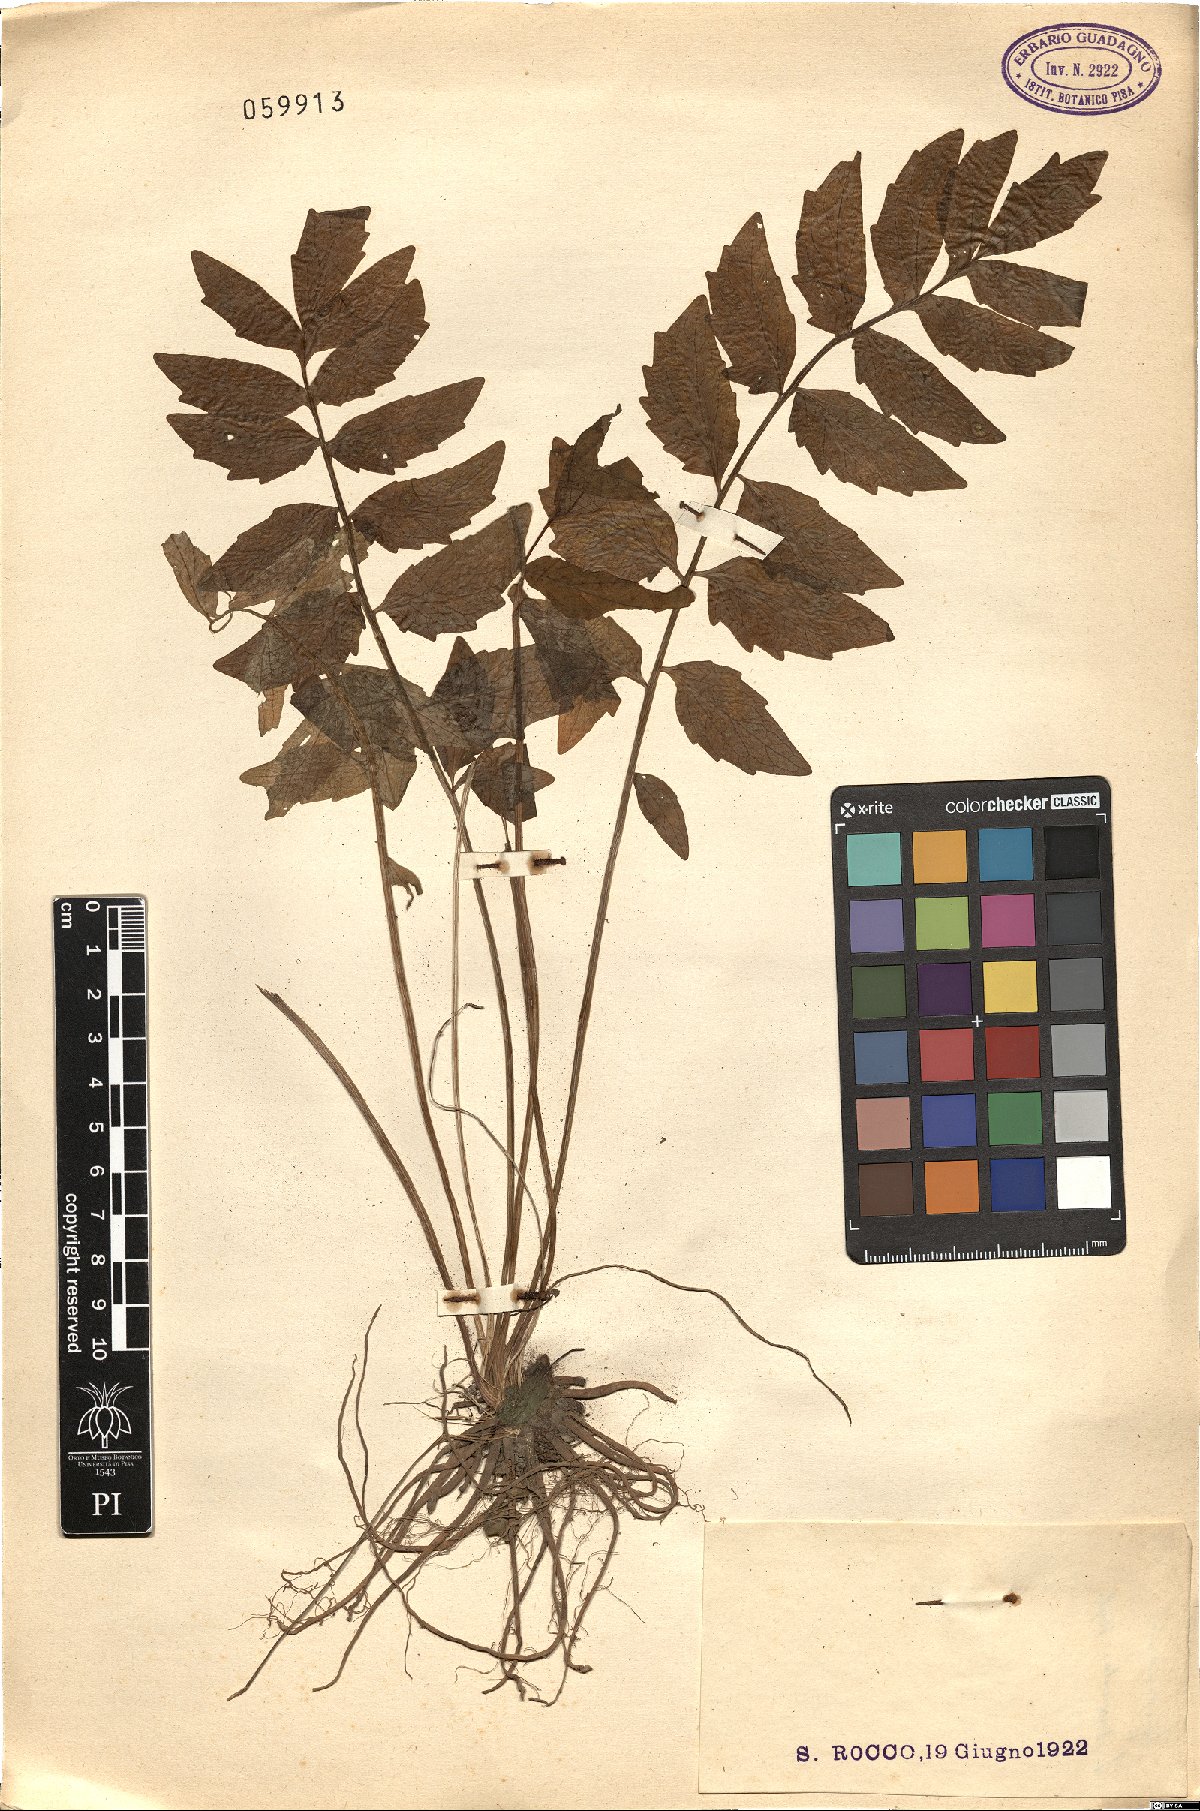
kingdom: Plantae
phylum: Tracheophyta
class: Magnoliopsida
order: Brassicales
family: Brassicaceae
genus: Cardamine
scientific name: Cardamine impatiens
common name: Narrow-leaved bitter-cress
